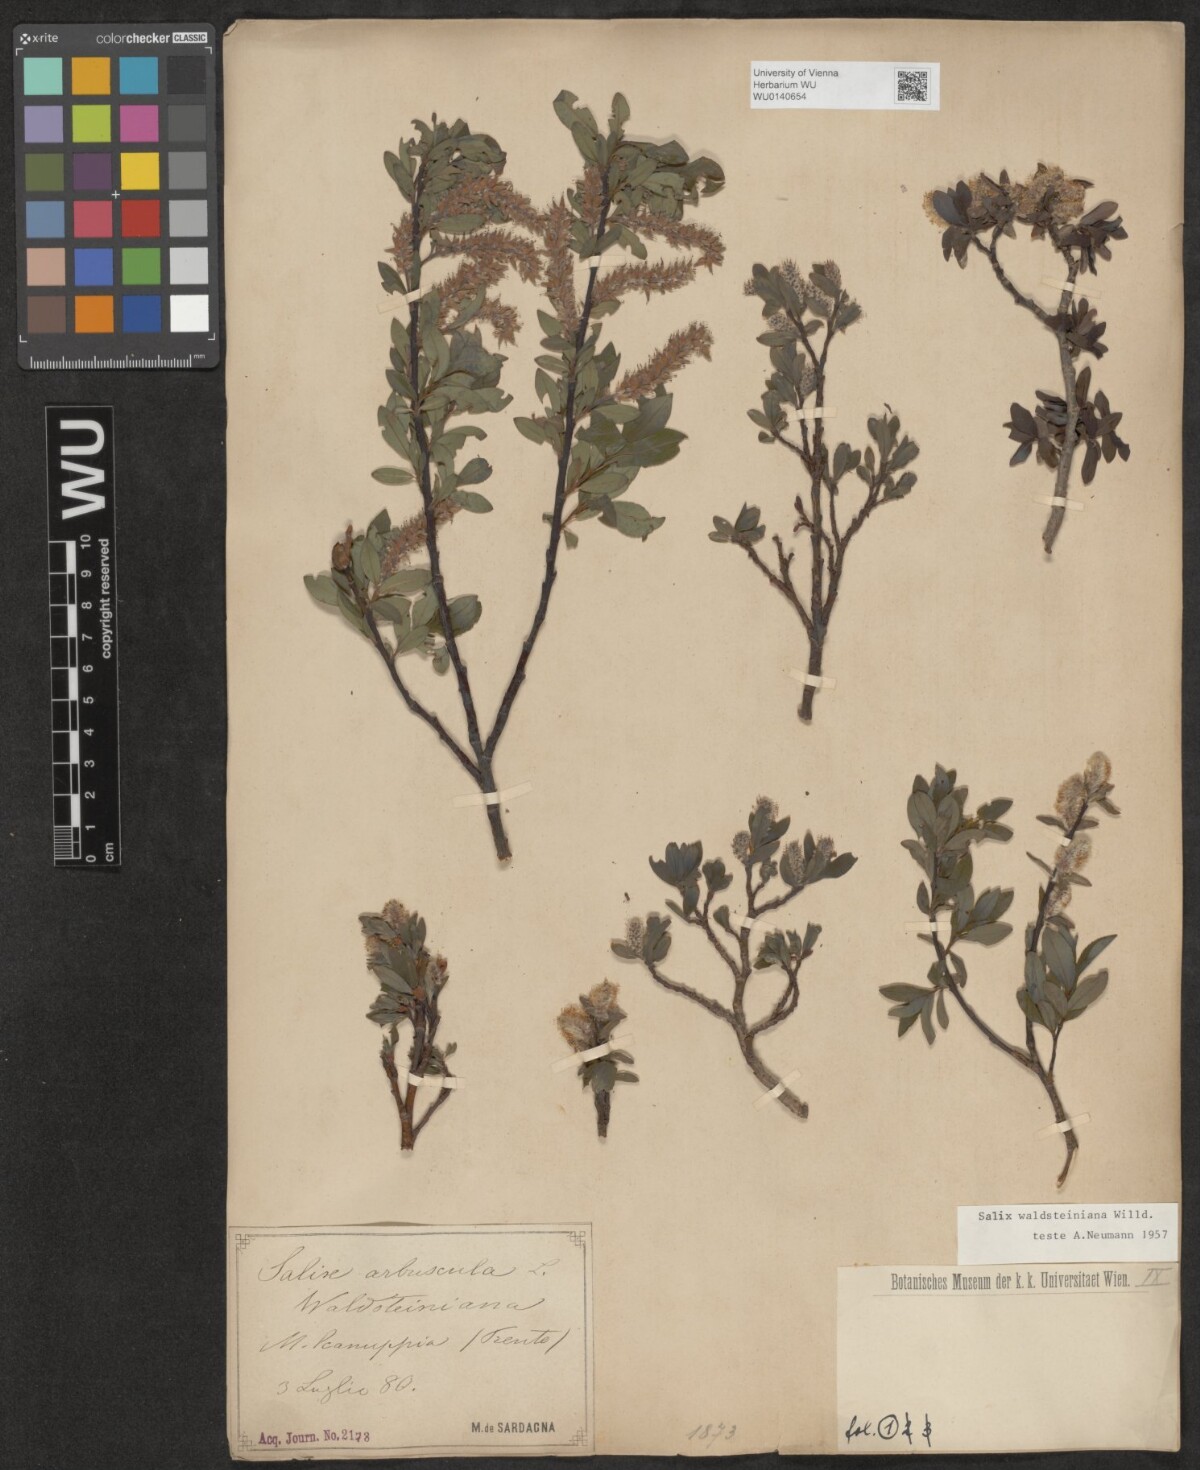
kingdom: Plantae
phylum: Tracheophyta
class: Magnoliopsida
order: Malpighiales
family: Salicaceae
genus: Salix
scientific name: Salix waldsteiniana
